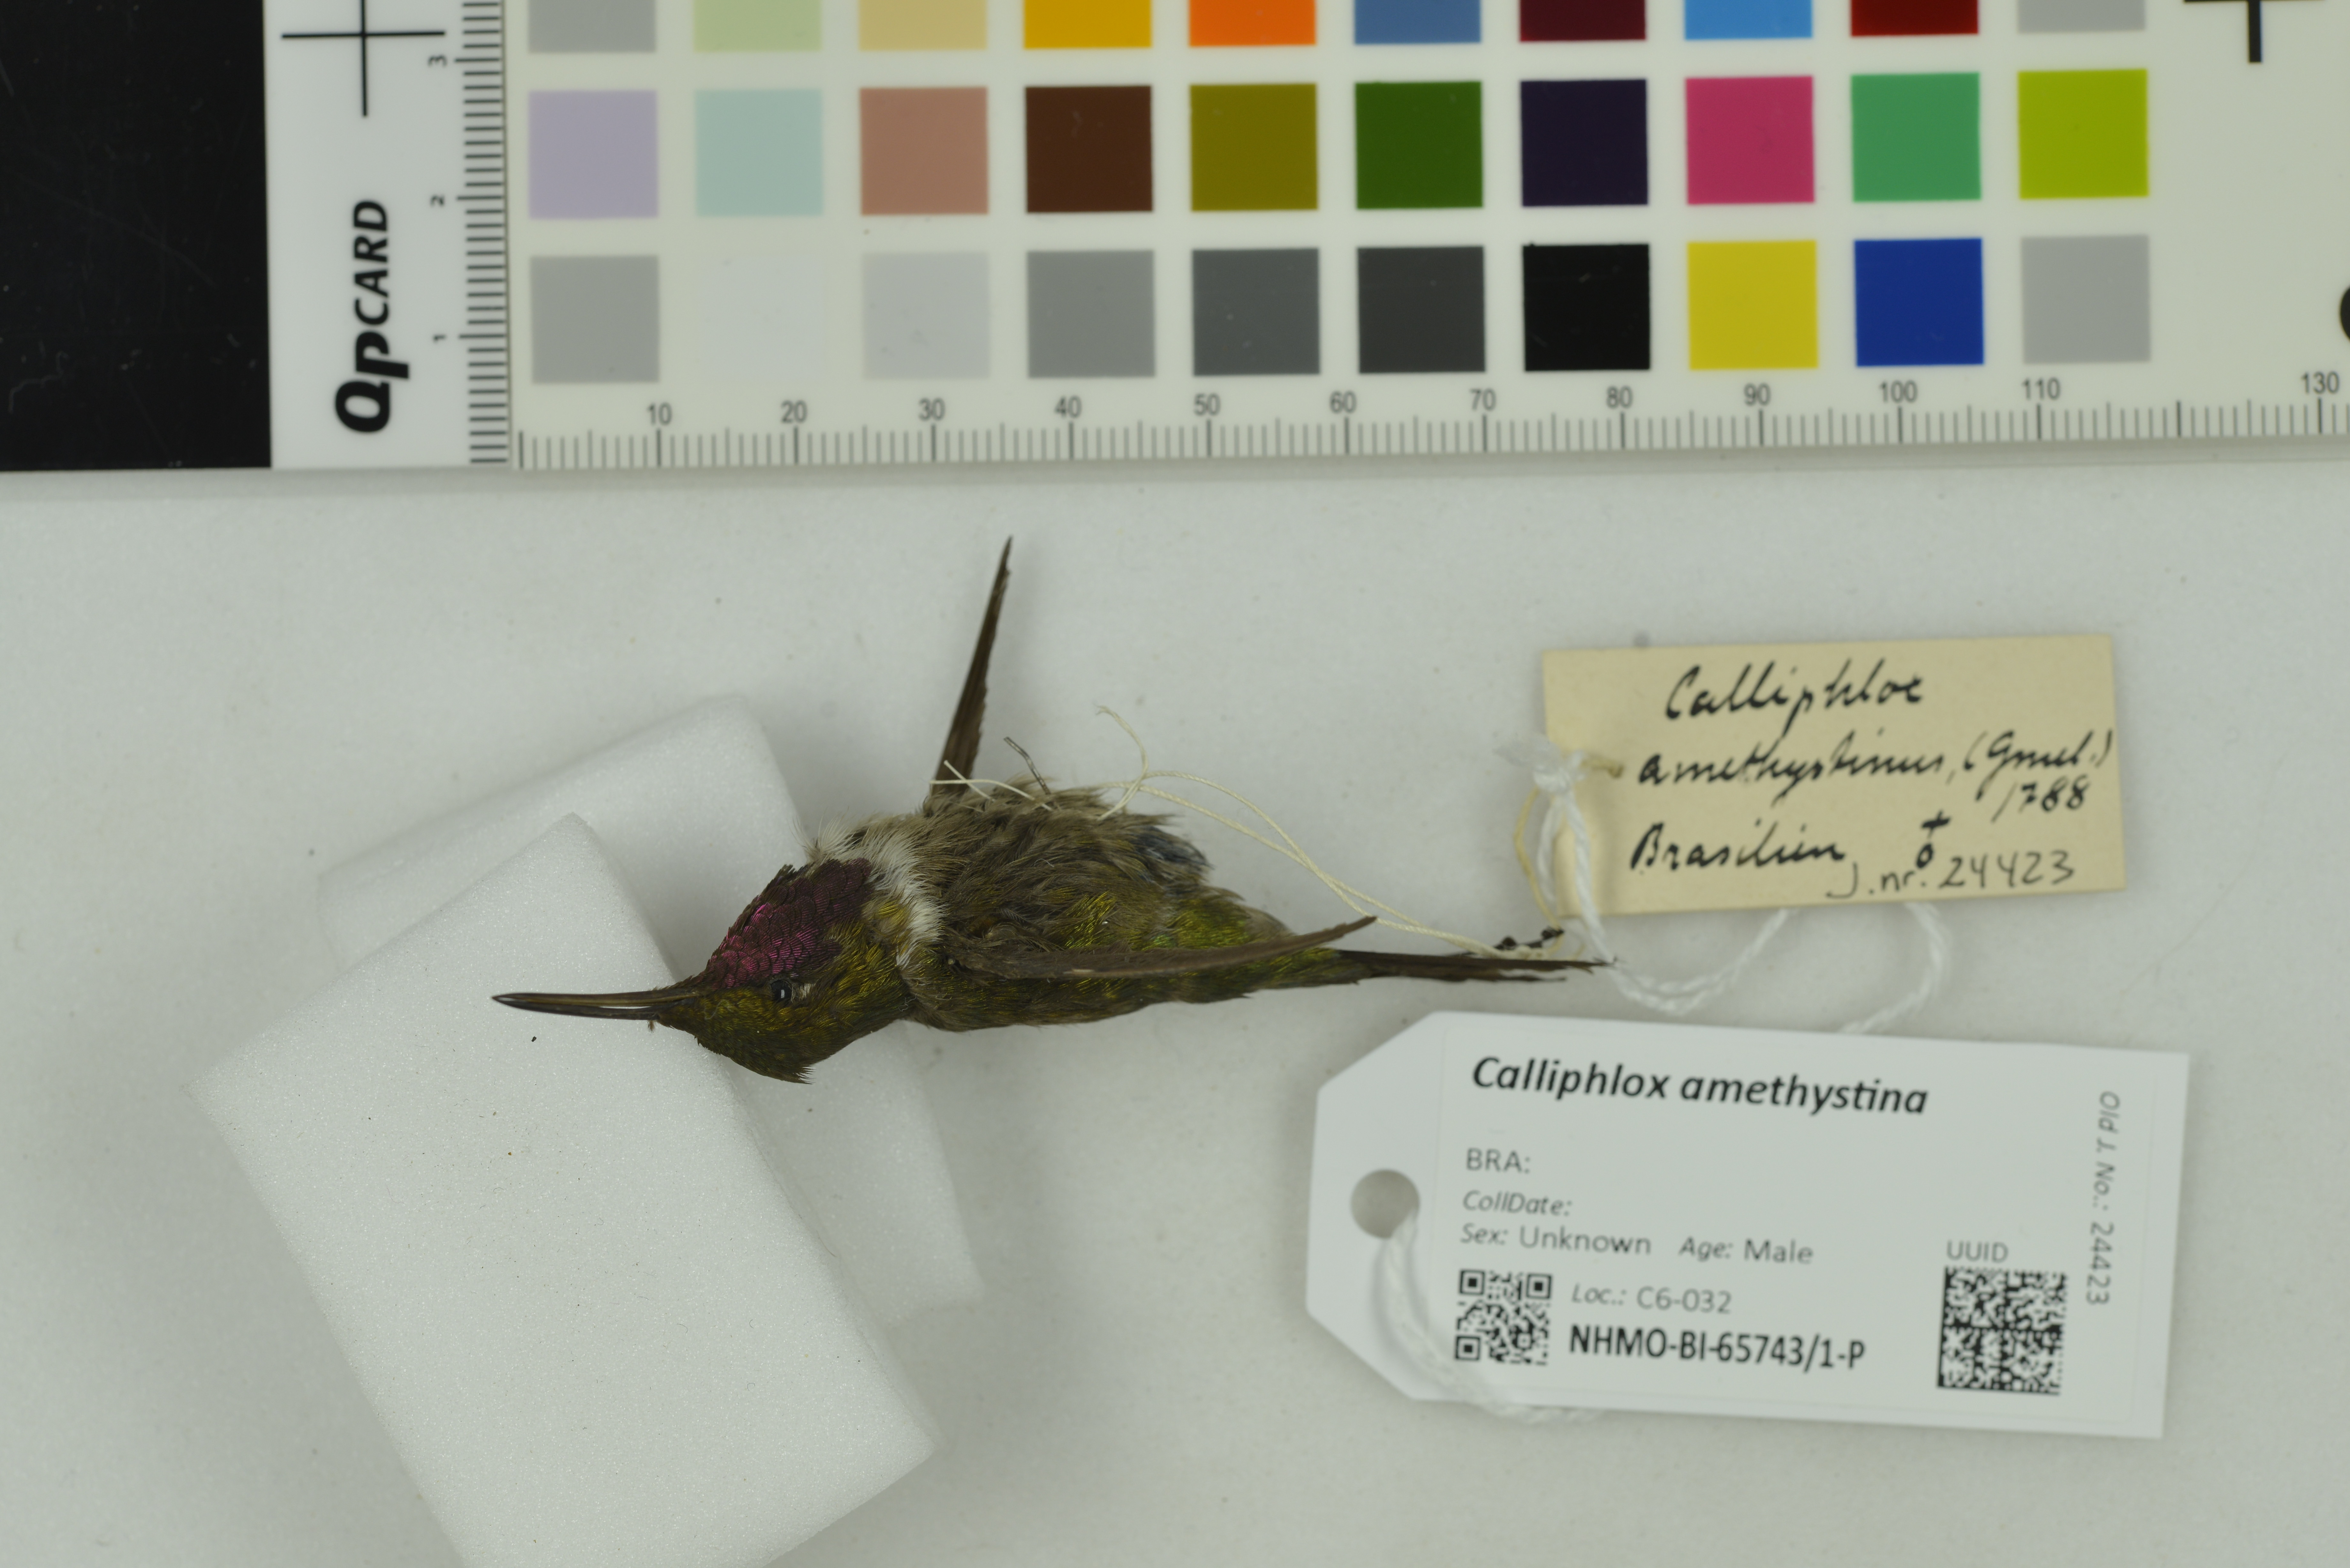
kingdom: Animalia
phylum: Chordata
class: Aves
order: Apodiformes
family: Trochilidae
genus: Calliphlox
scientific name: Calliphlox amethystina
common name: Amethyst woodstar
